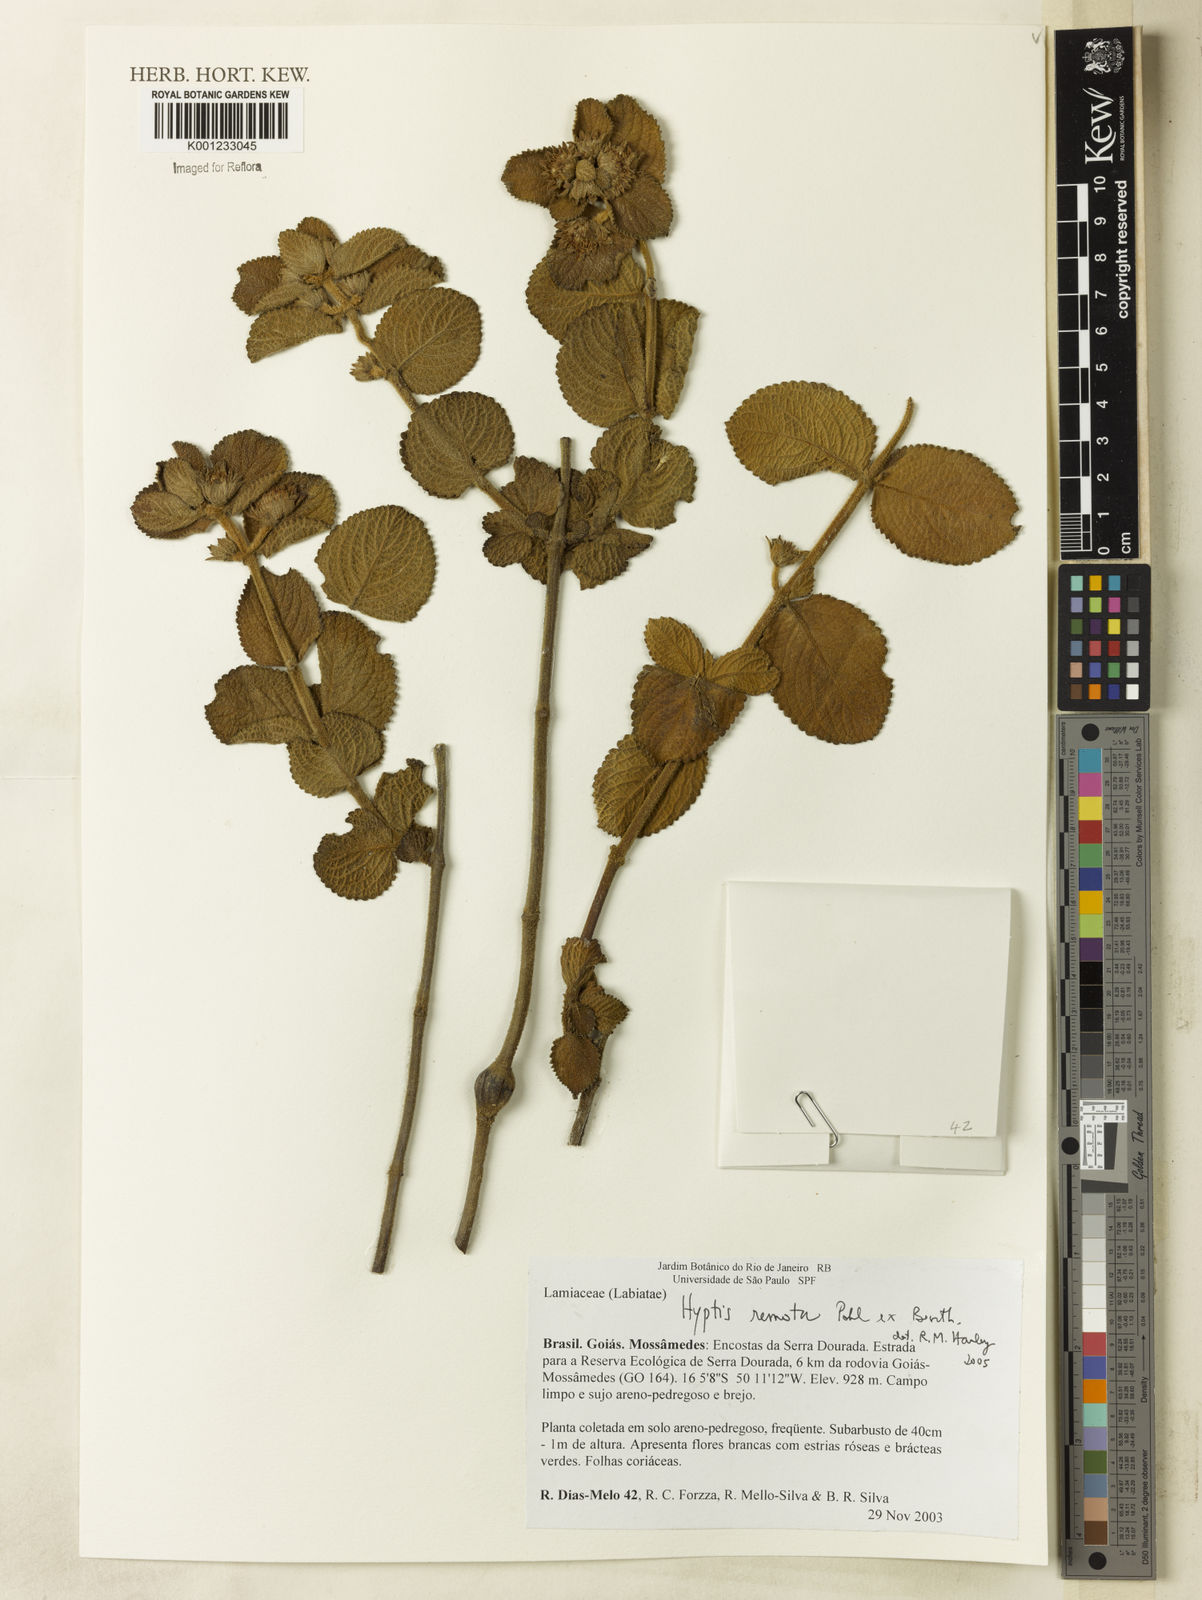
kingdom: Plantae
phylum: Tracheophyta
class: Magnoliopsida
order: Lamiales
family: Lamiaceae
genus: Hyptis
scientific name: Hyptis remota
